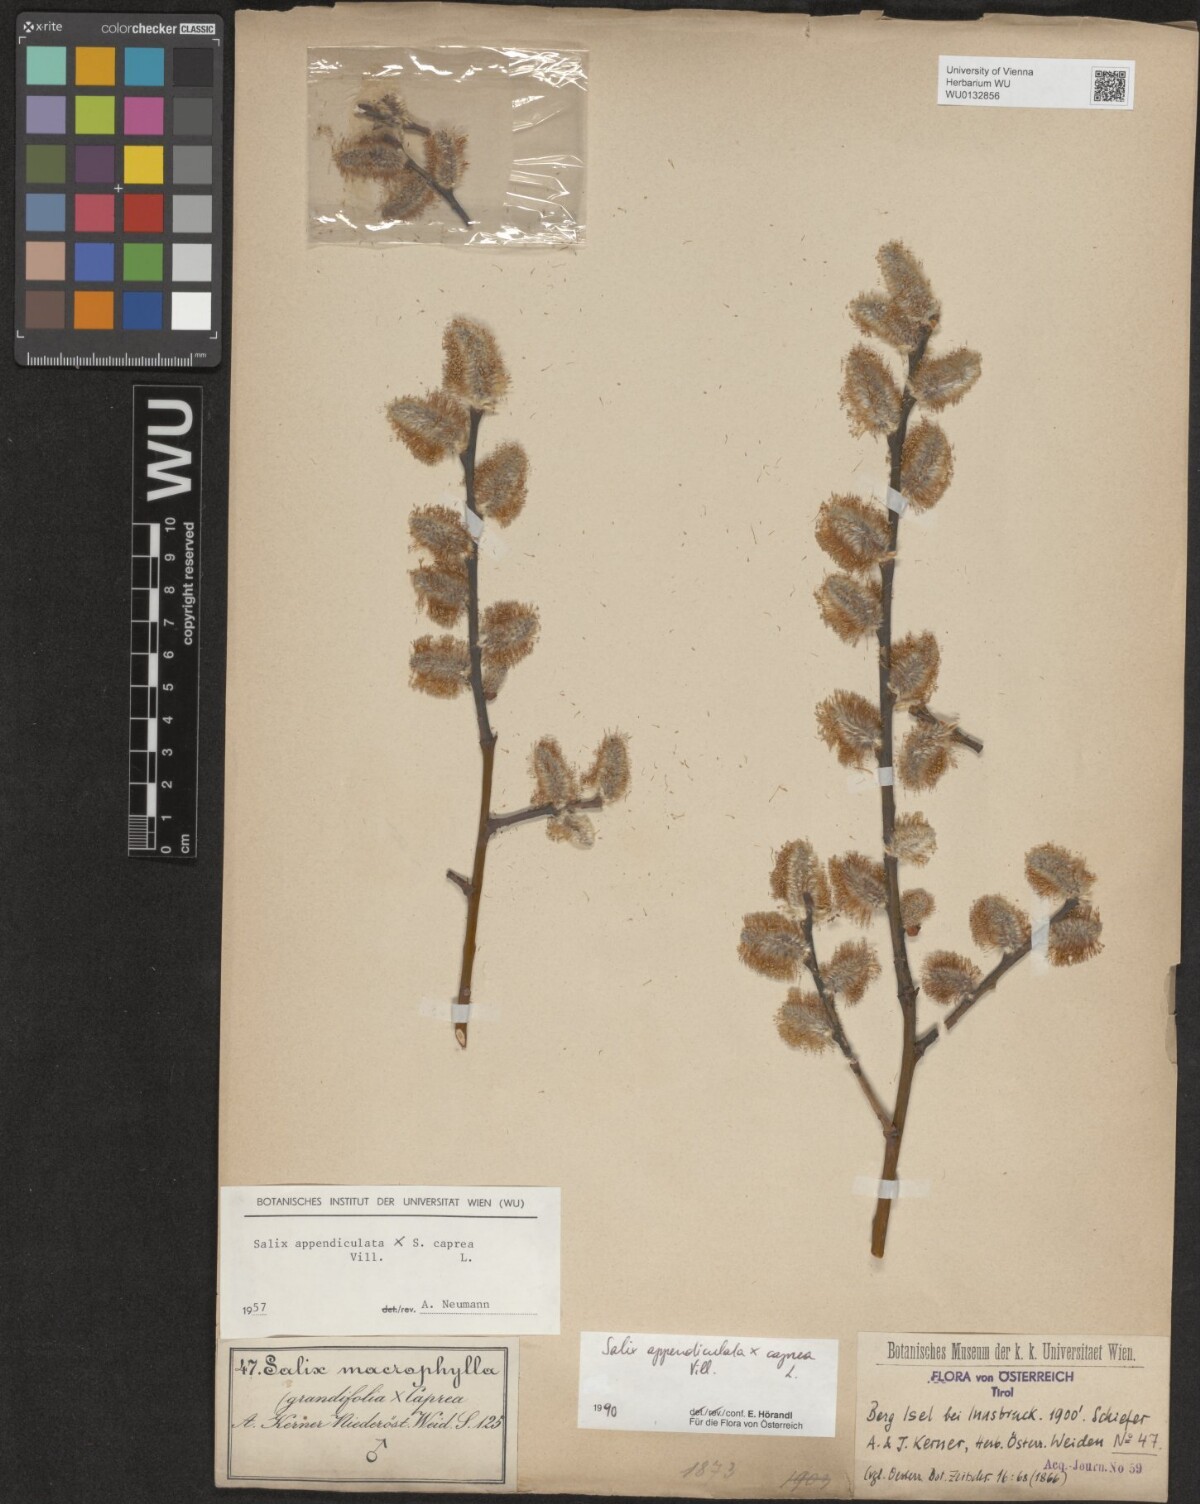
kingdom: Plantae
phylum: Tracheophyta
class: Magnoliopsida
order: Malpighiales
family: Salicaceae
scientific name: Salicaceae
